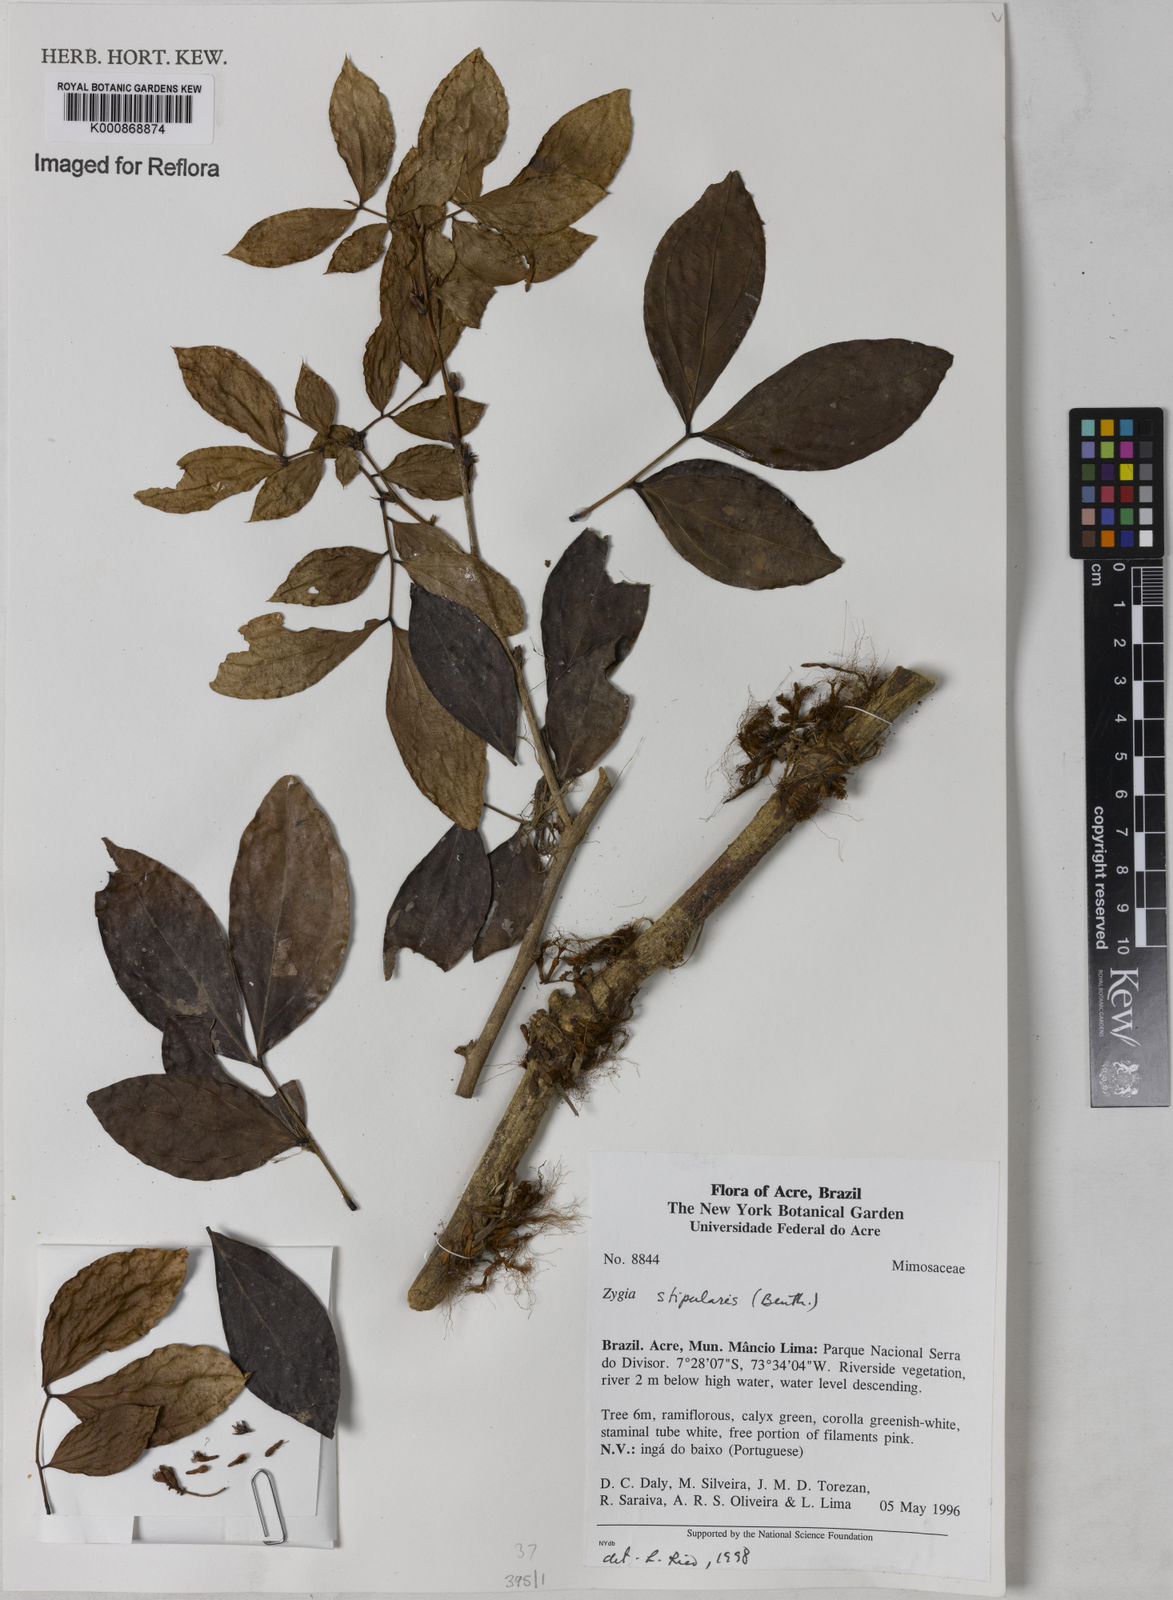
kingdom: Plantae
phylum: Tracheophyta
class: Magnoliopsida
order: Fabales
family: Fabaceae
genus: Zygia
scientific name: Zygia cauliflora
